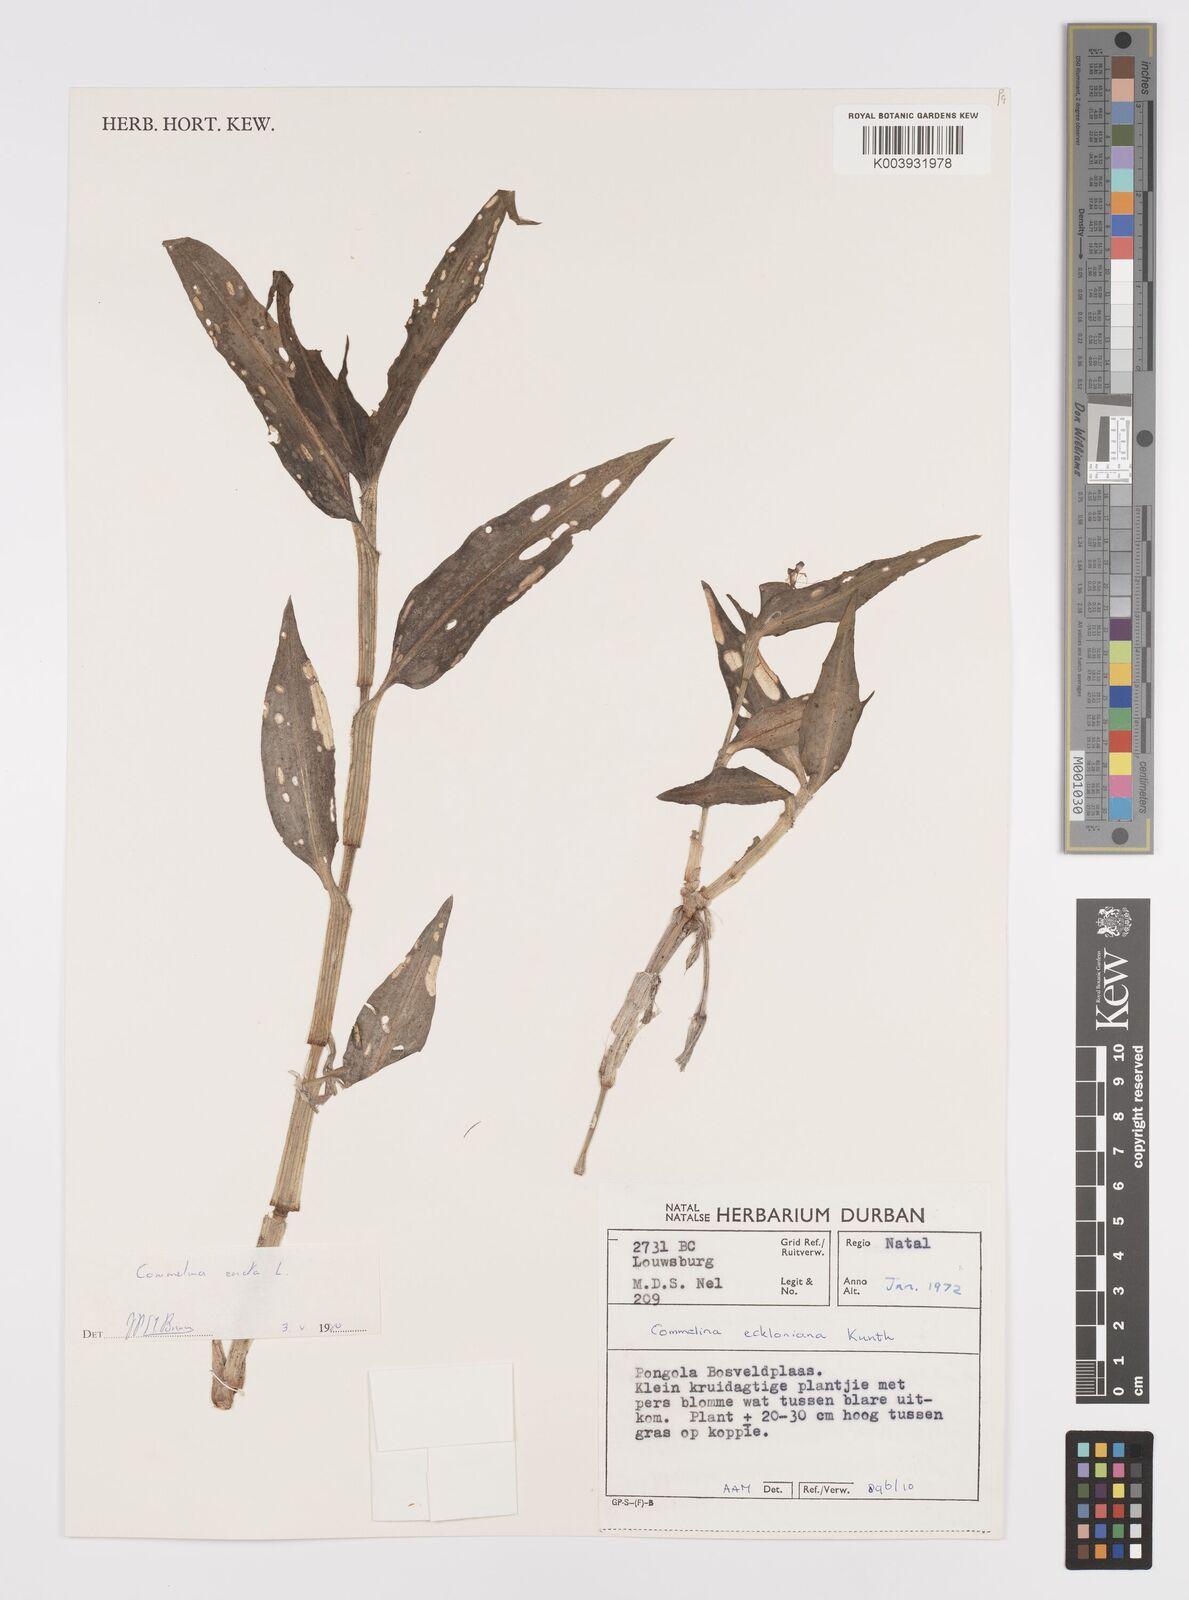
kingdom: Plantae
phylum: Tracheophyta
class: Liliopsida
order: Commelinales
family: Commelinaceae
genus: Commelina
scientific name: Commelina erecta
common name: Blousel blommetjie
